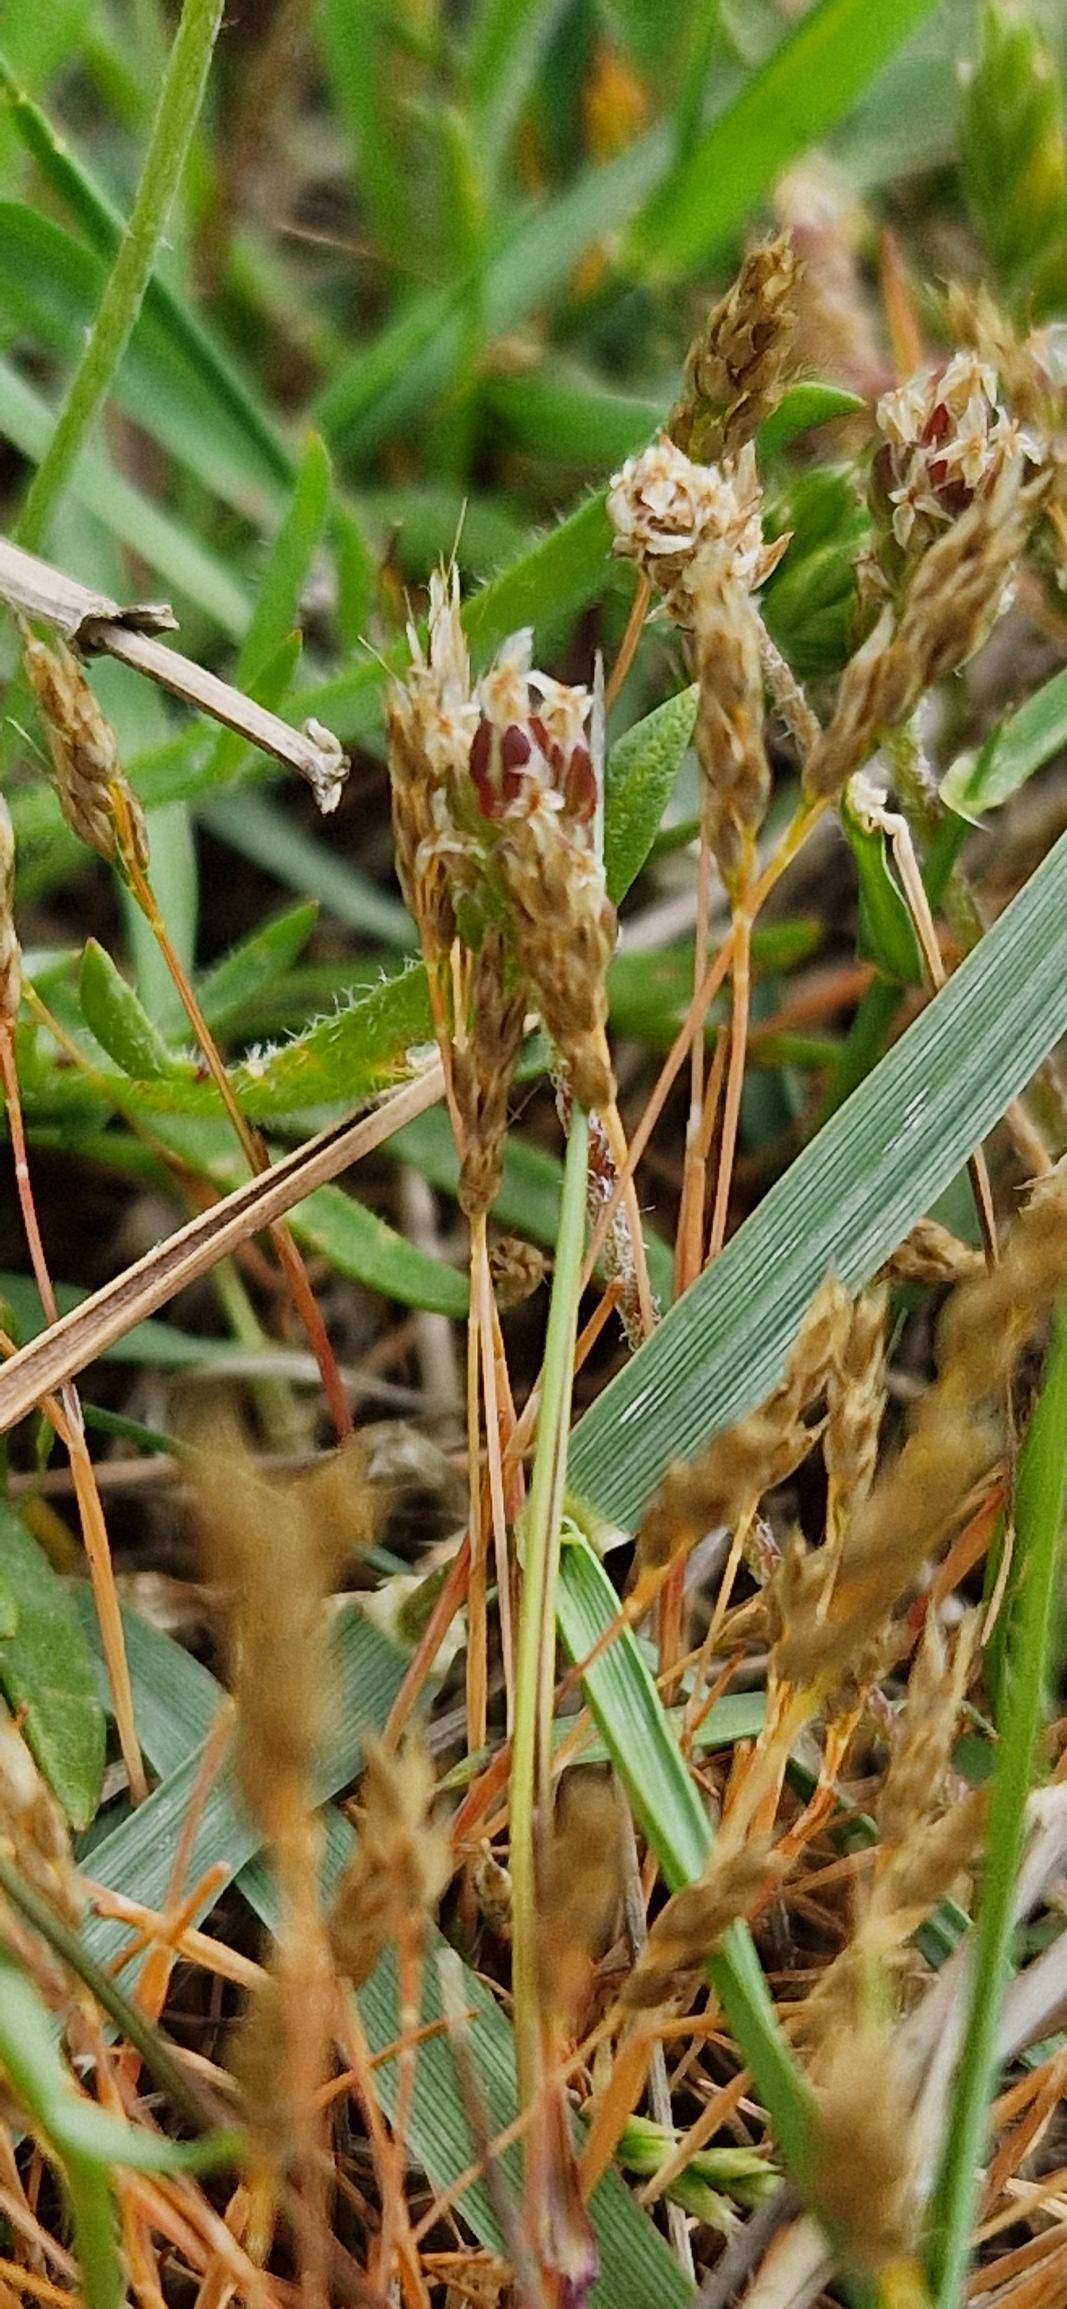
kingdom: Plantae
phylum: Tracheophyta
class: Liliopsida
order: Poales
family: Poaceae
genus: Aira
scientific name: Aira praecox
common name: Tidlig dværgbunke
